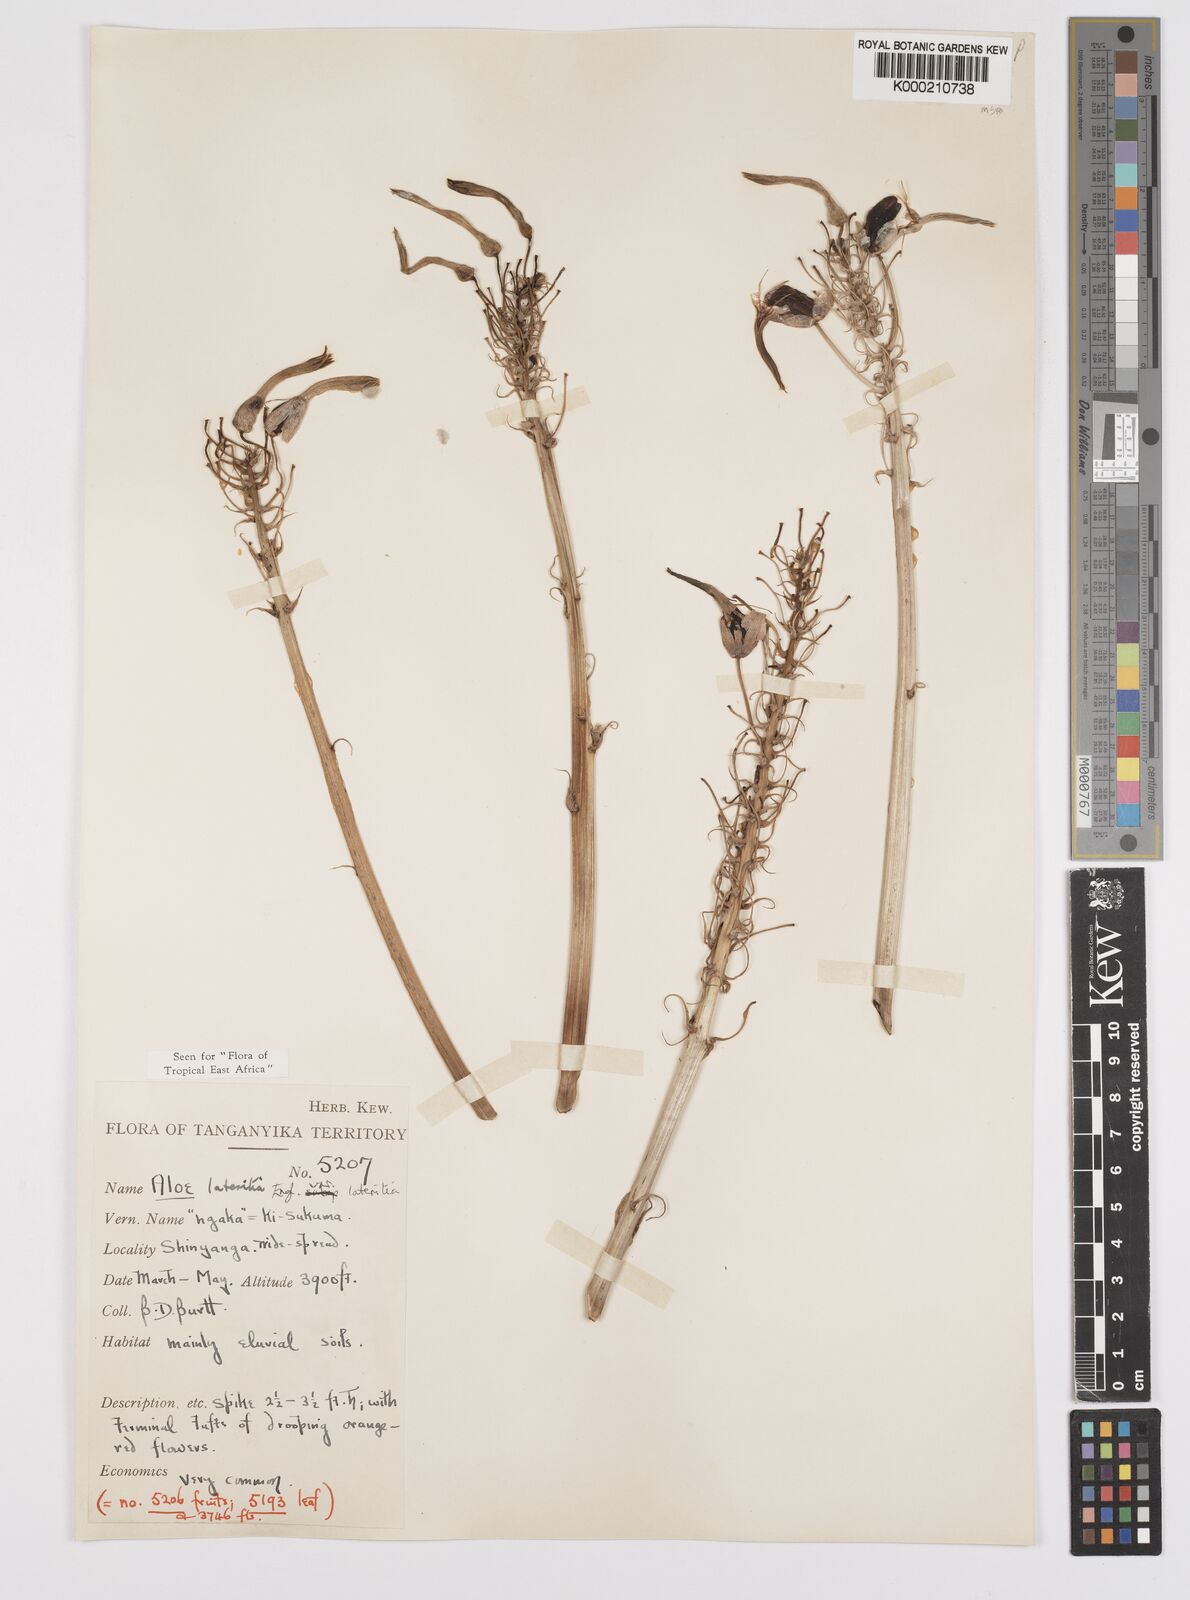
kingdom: Plantae
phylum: Tracheophyta
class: Liliopsida
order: Asparagales
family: Asphodelaceae
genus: Aloe
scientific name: Aloe lateritia
